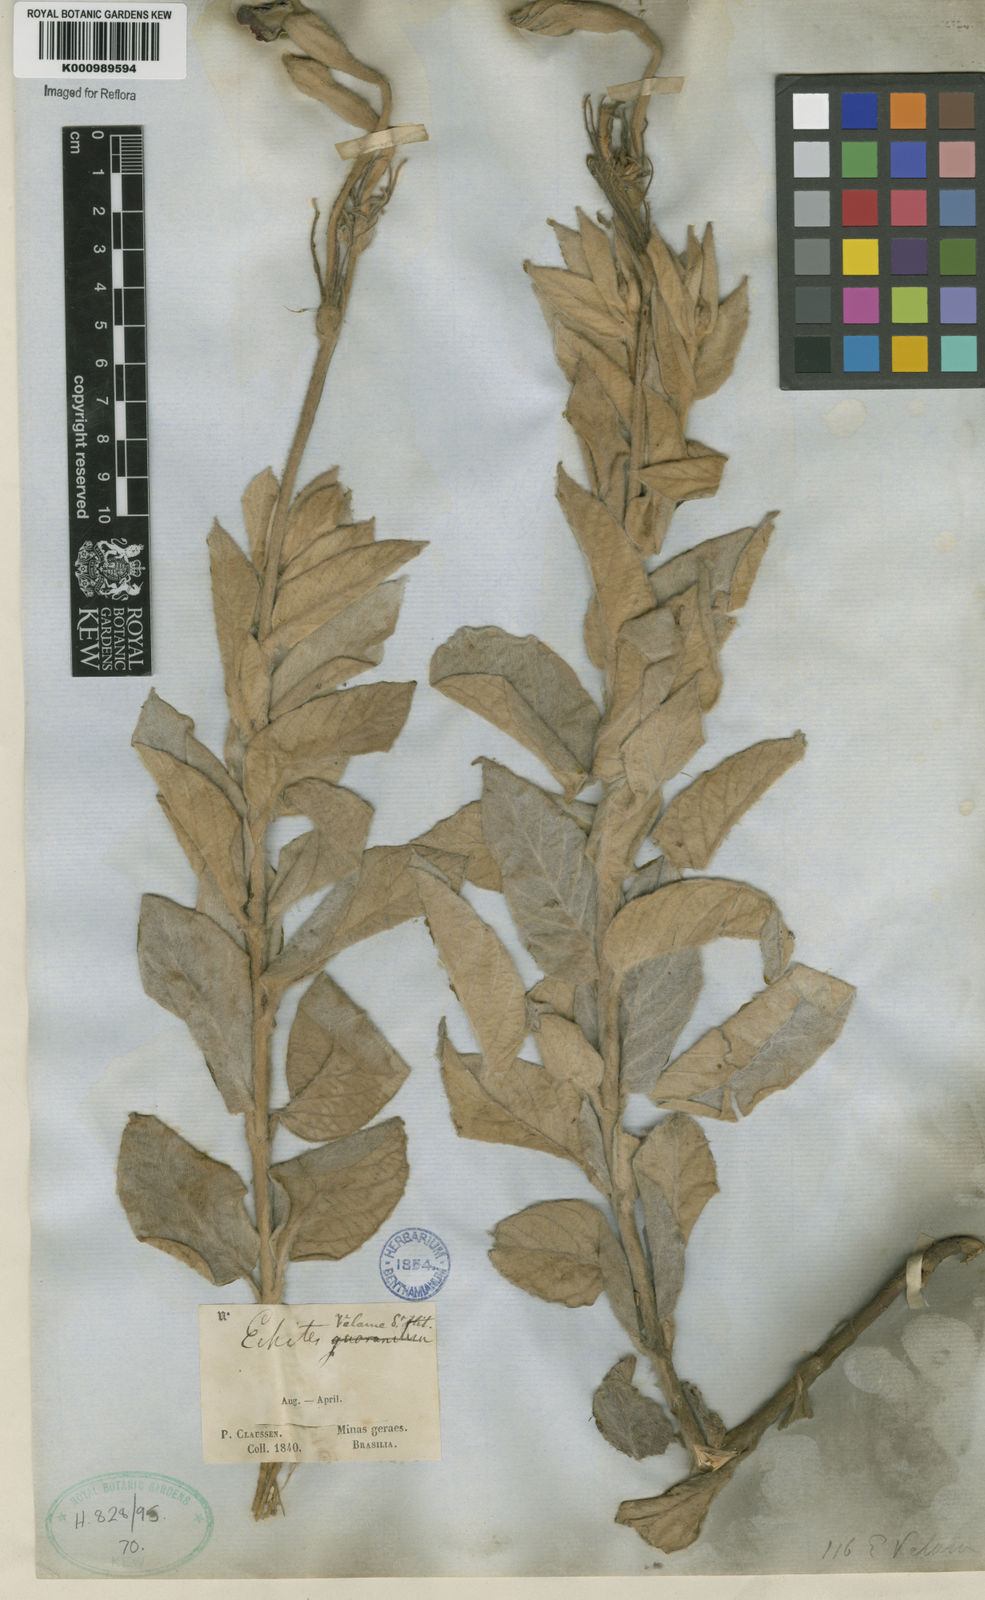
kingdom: Plantae
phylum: Tracheophyta
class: Magnoliopsida
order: Gentianales
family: Apocynaceae
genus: Mandevilla
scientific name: Mandevilla velame
